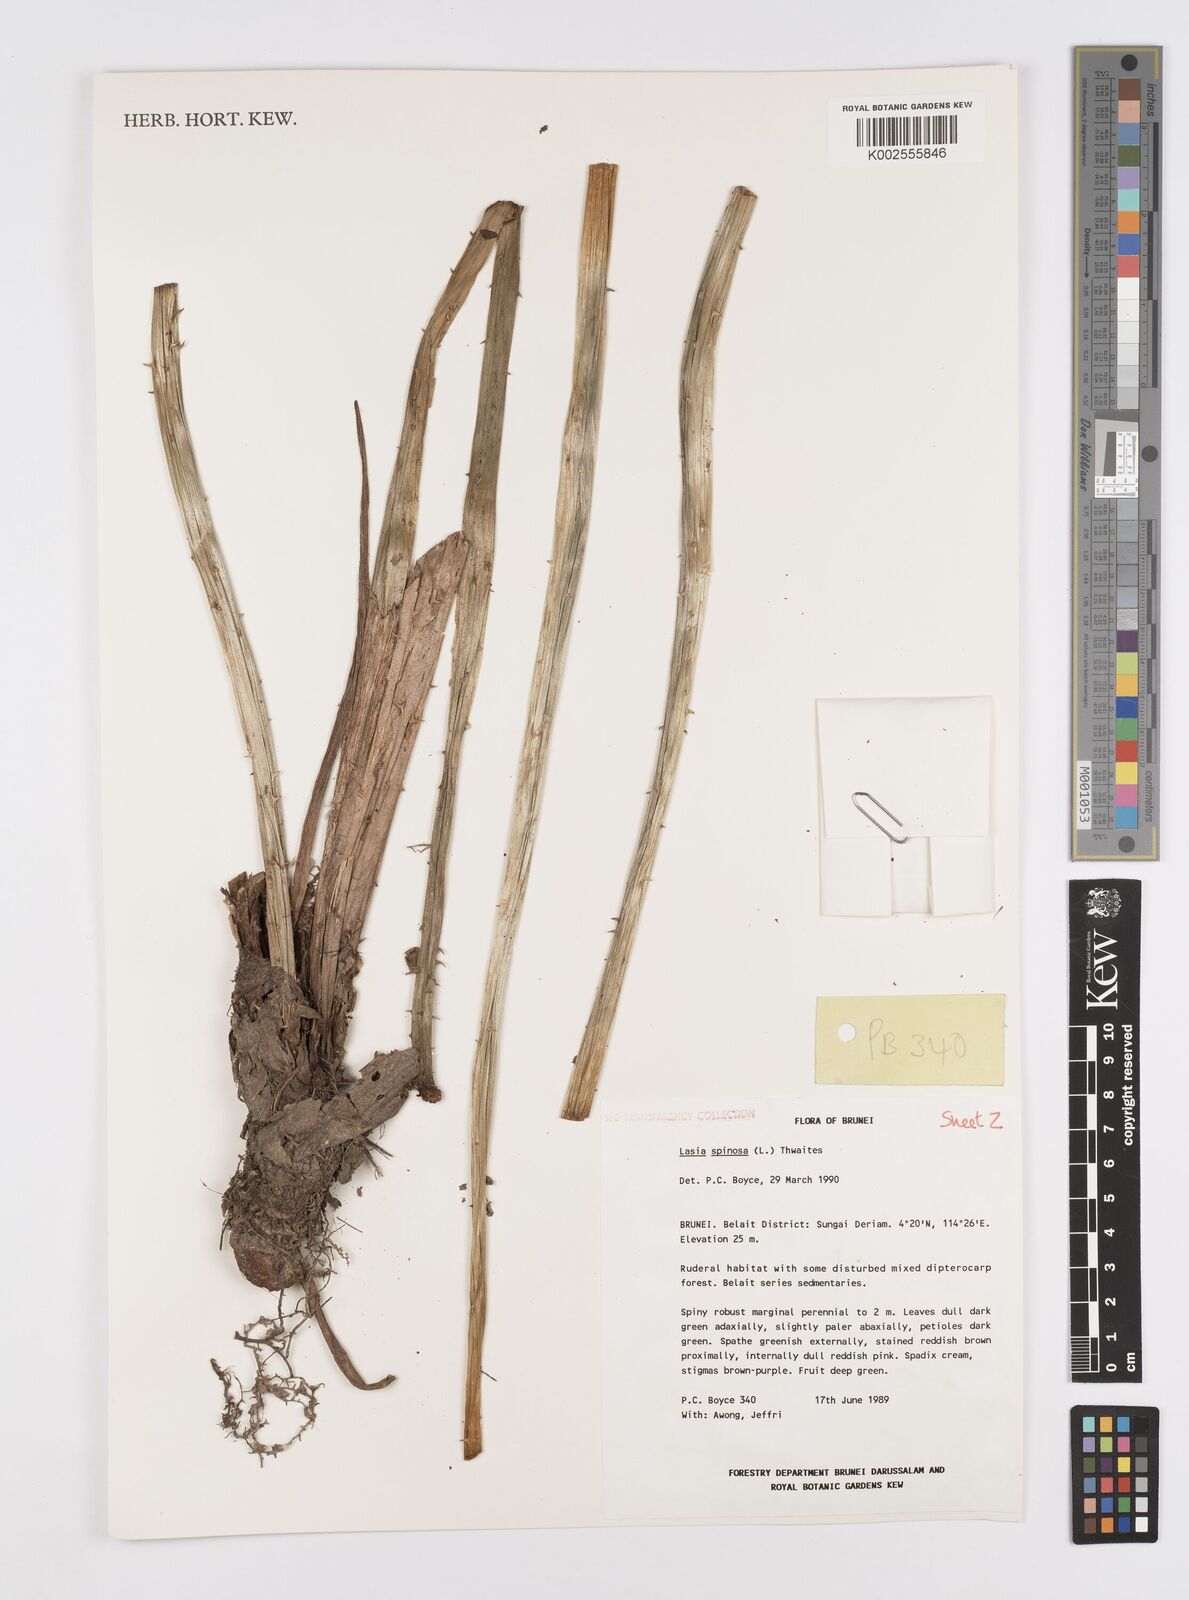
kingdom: Plantae
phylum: Tracheophyta
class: Liliopsida
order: Alismatales
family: Araceae
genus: Lasia
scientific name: Lasia spinosa
